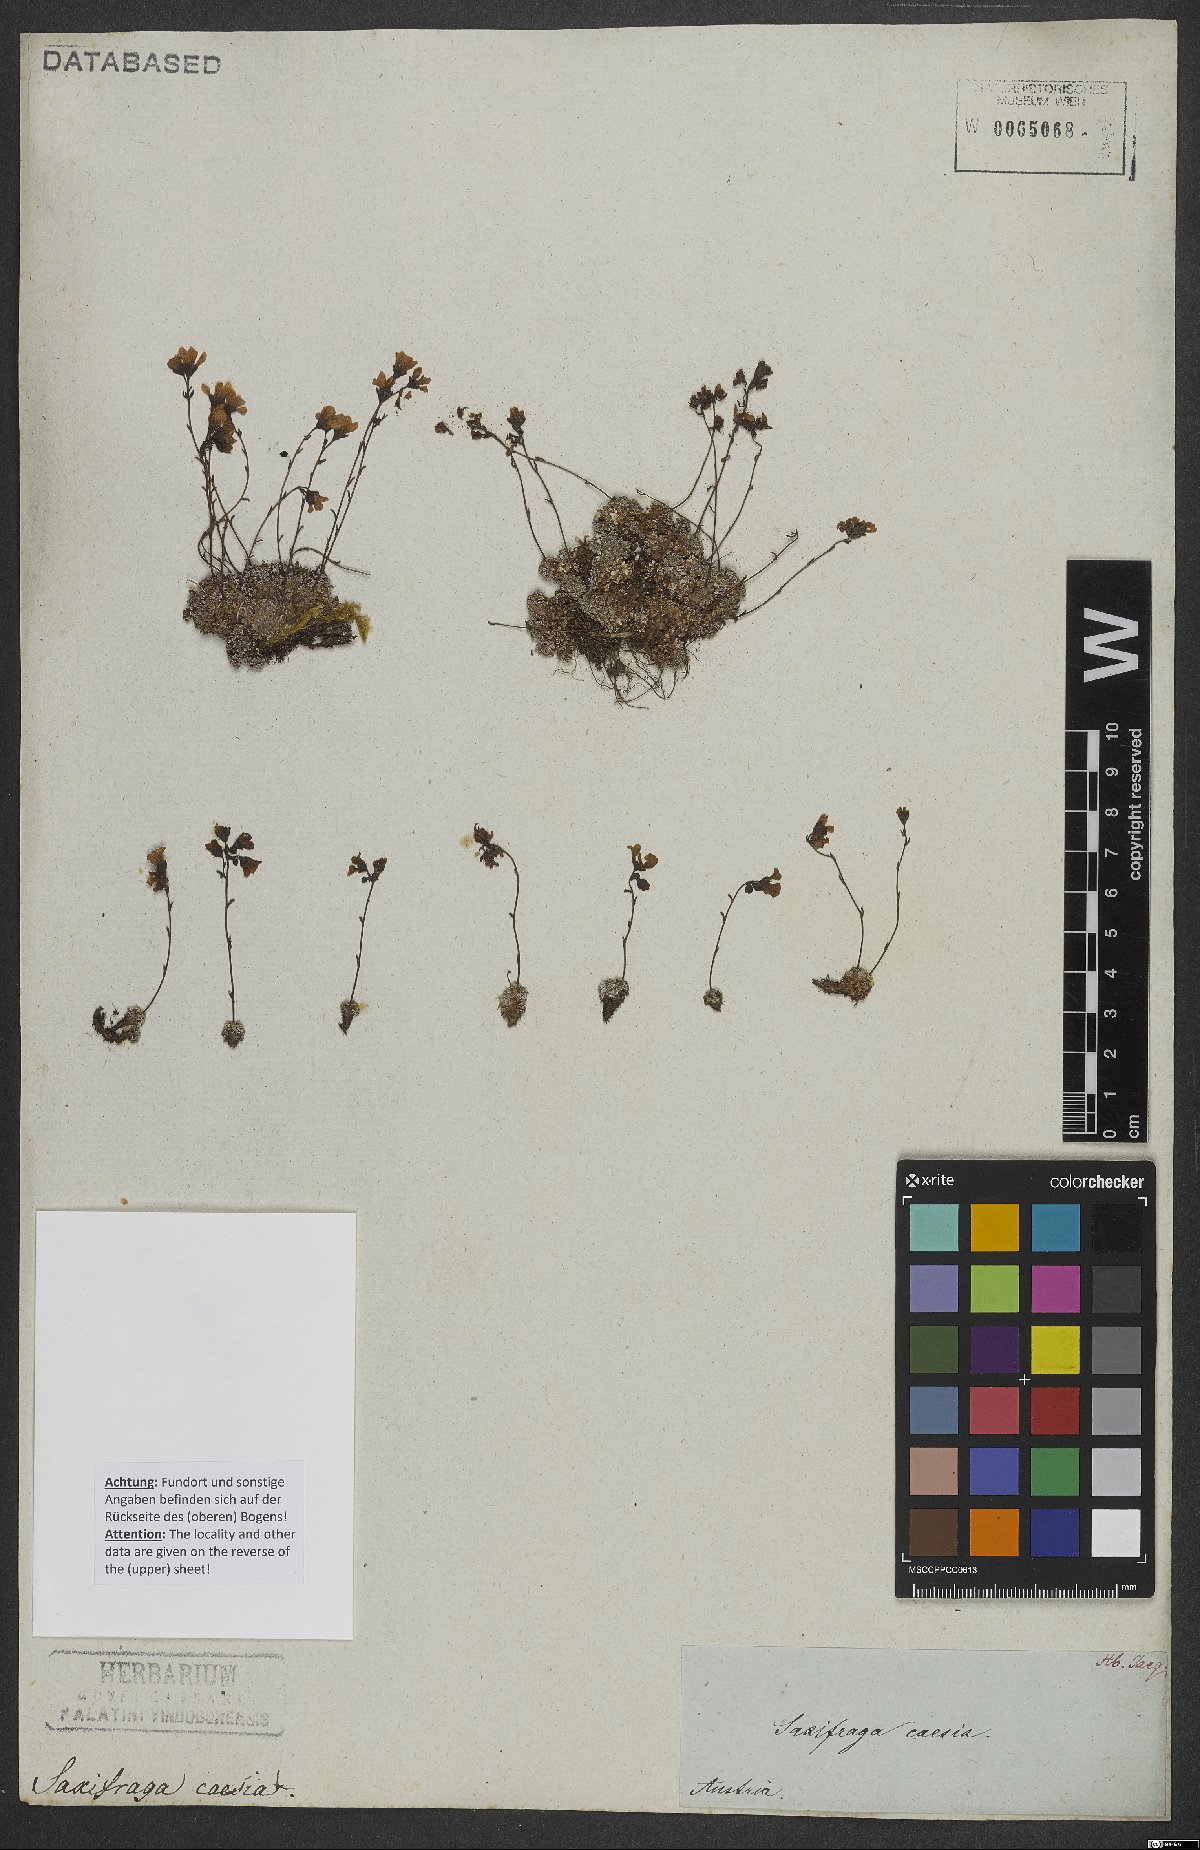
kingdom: Plantae
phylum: Tracheophyta
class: Magnoliopsida
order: Saxifragales
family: Saxifragaceae
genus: Saxifraga
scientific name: Saxifraga caesia
